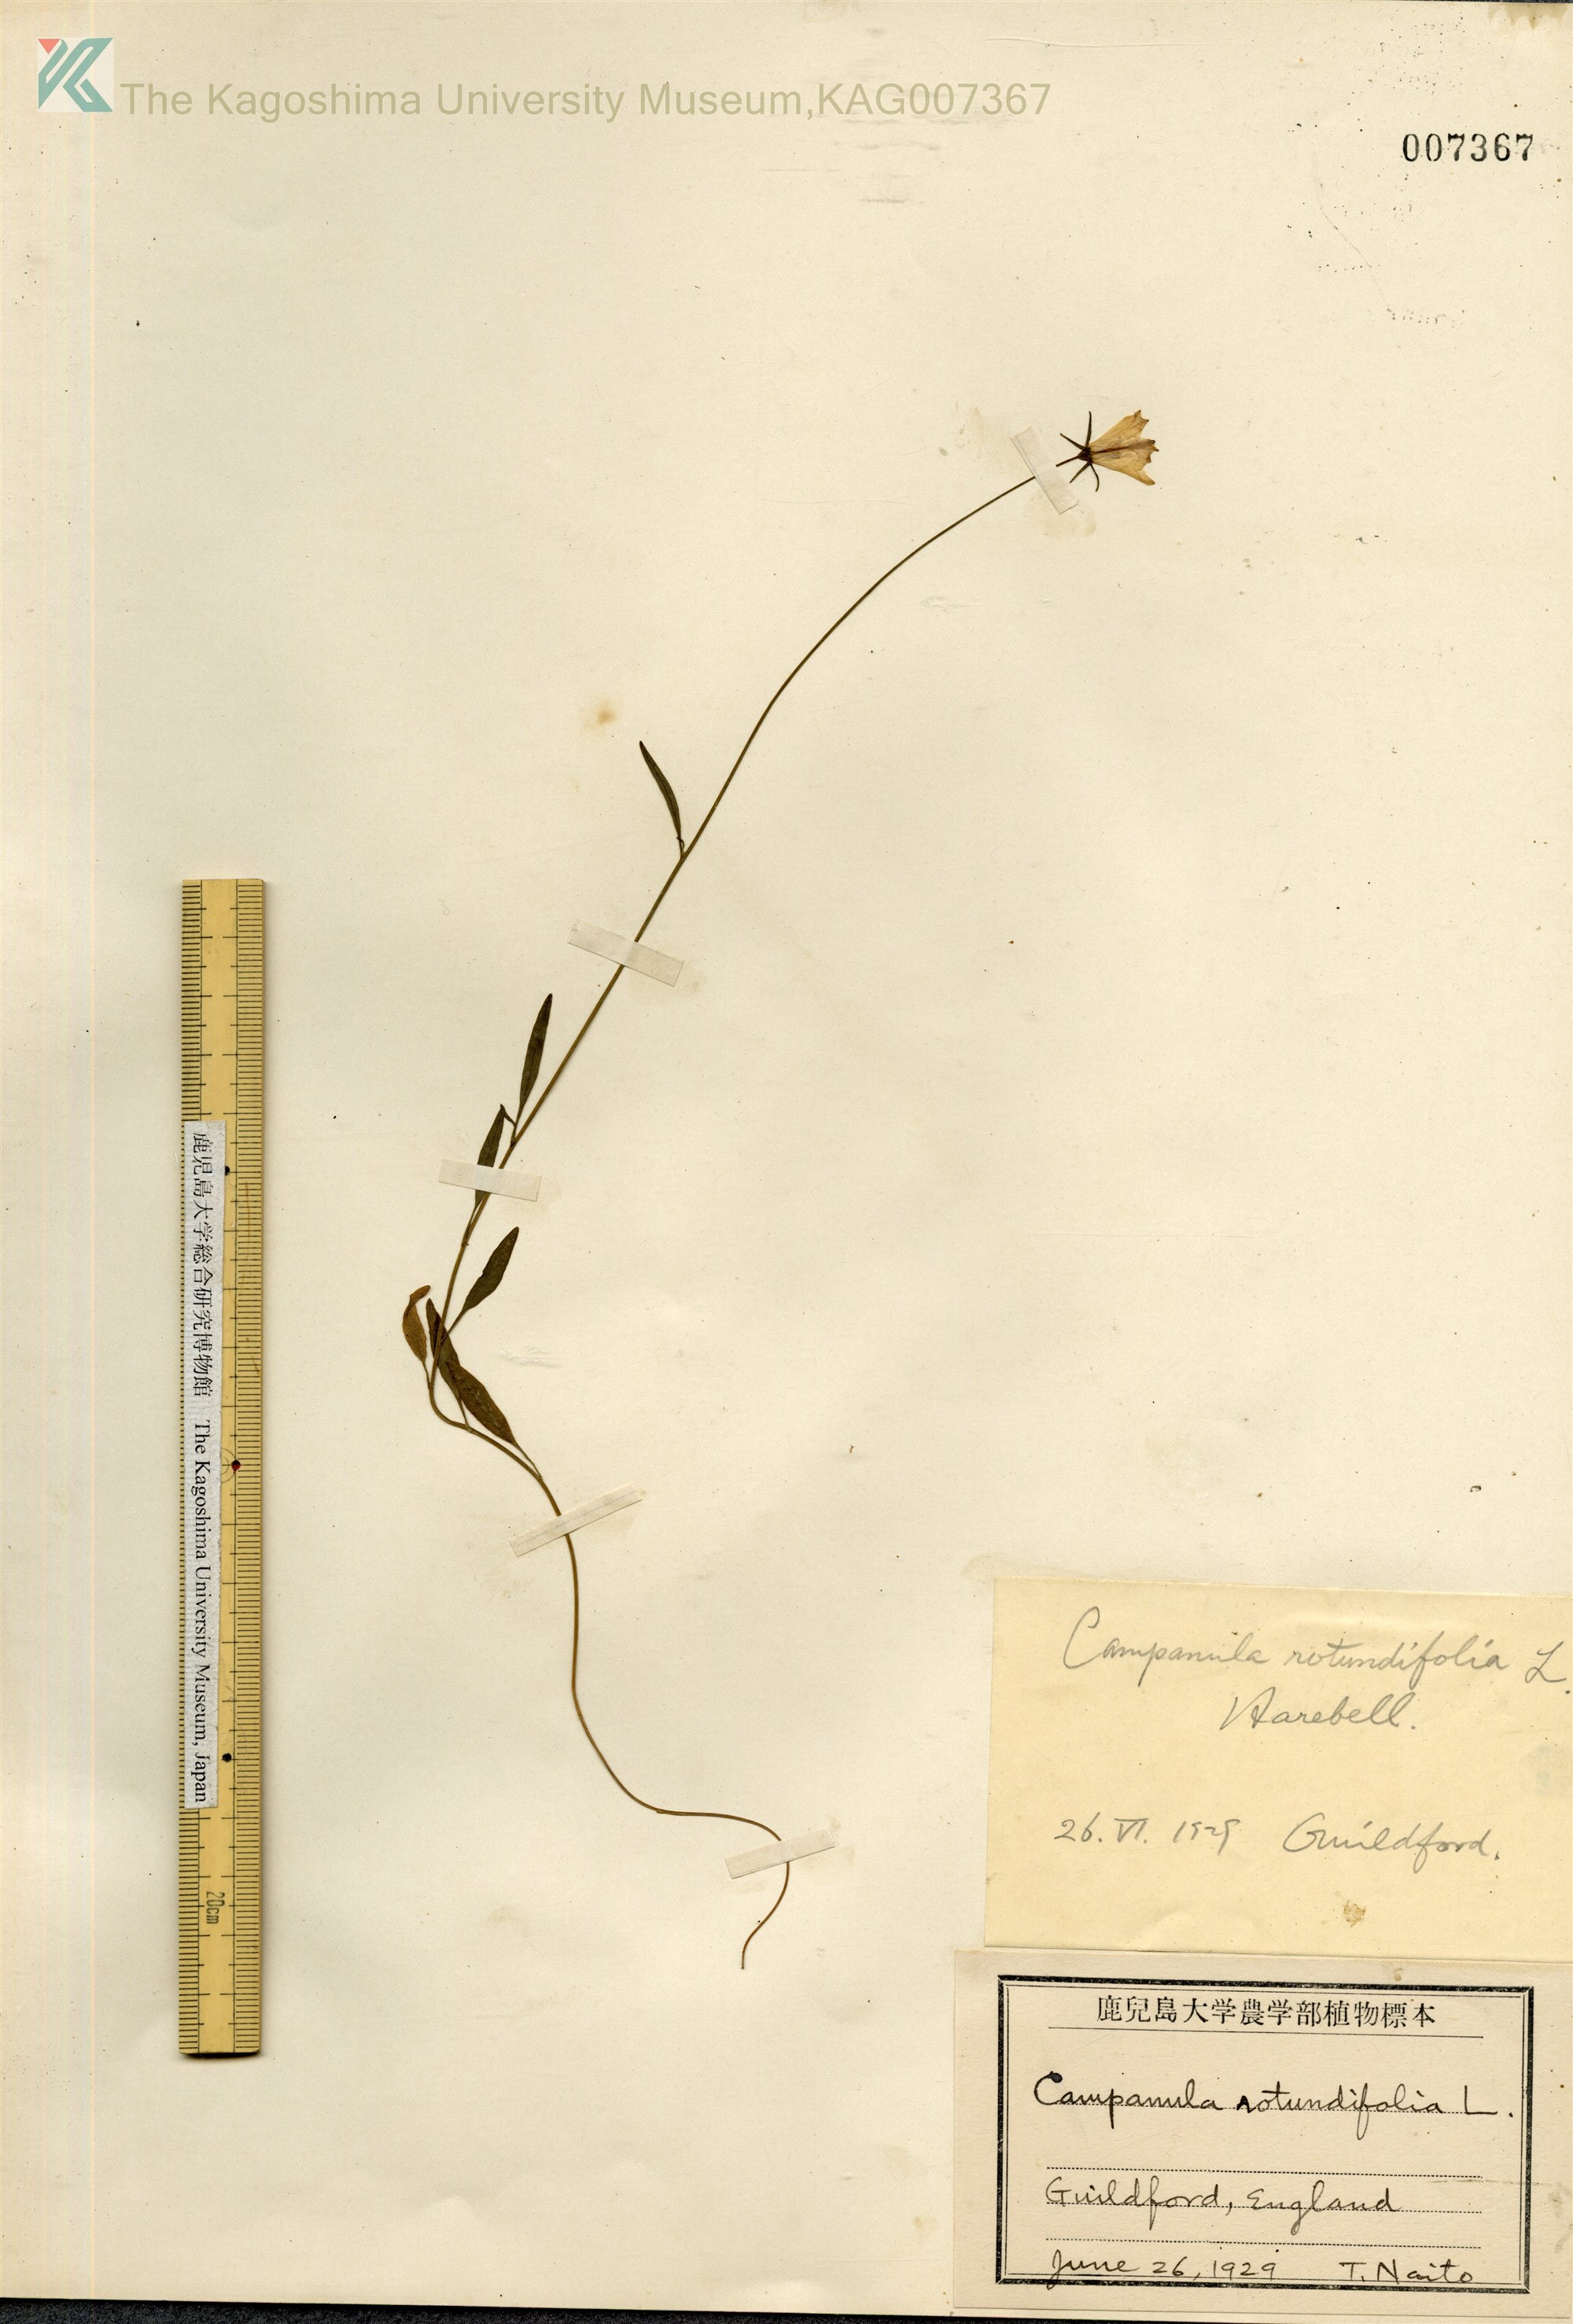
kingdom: Plantae
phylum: Tracheophyta
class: Magnoliopsida
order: Asterales
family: Campanulaceae
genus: Campanula
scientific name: Campanula rotundifolia
